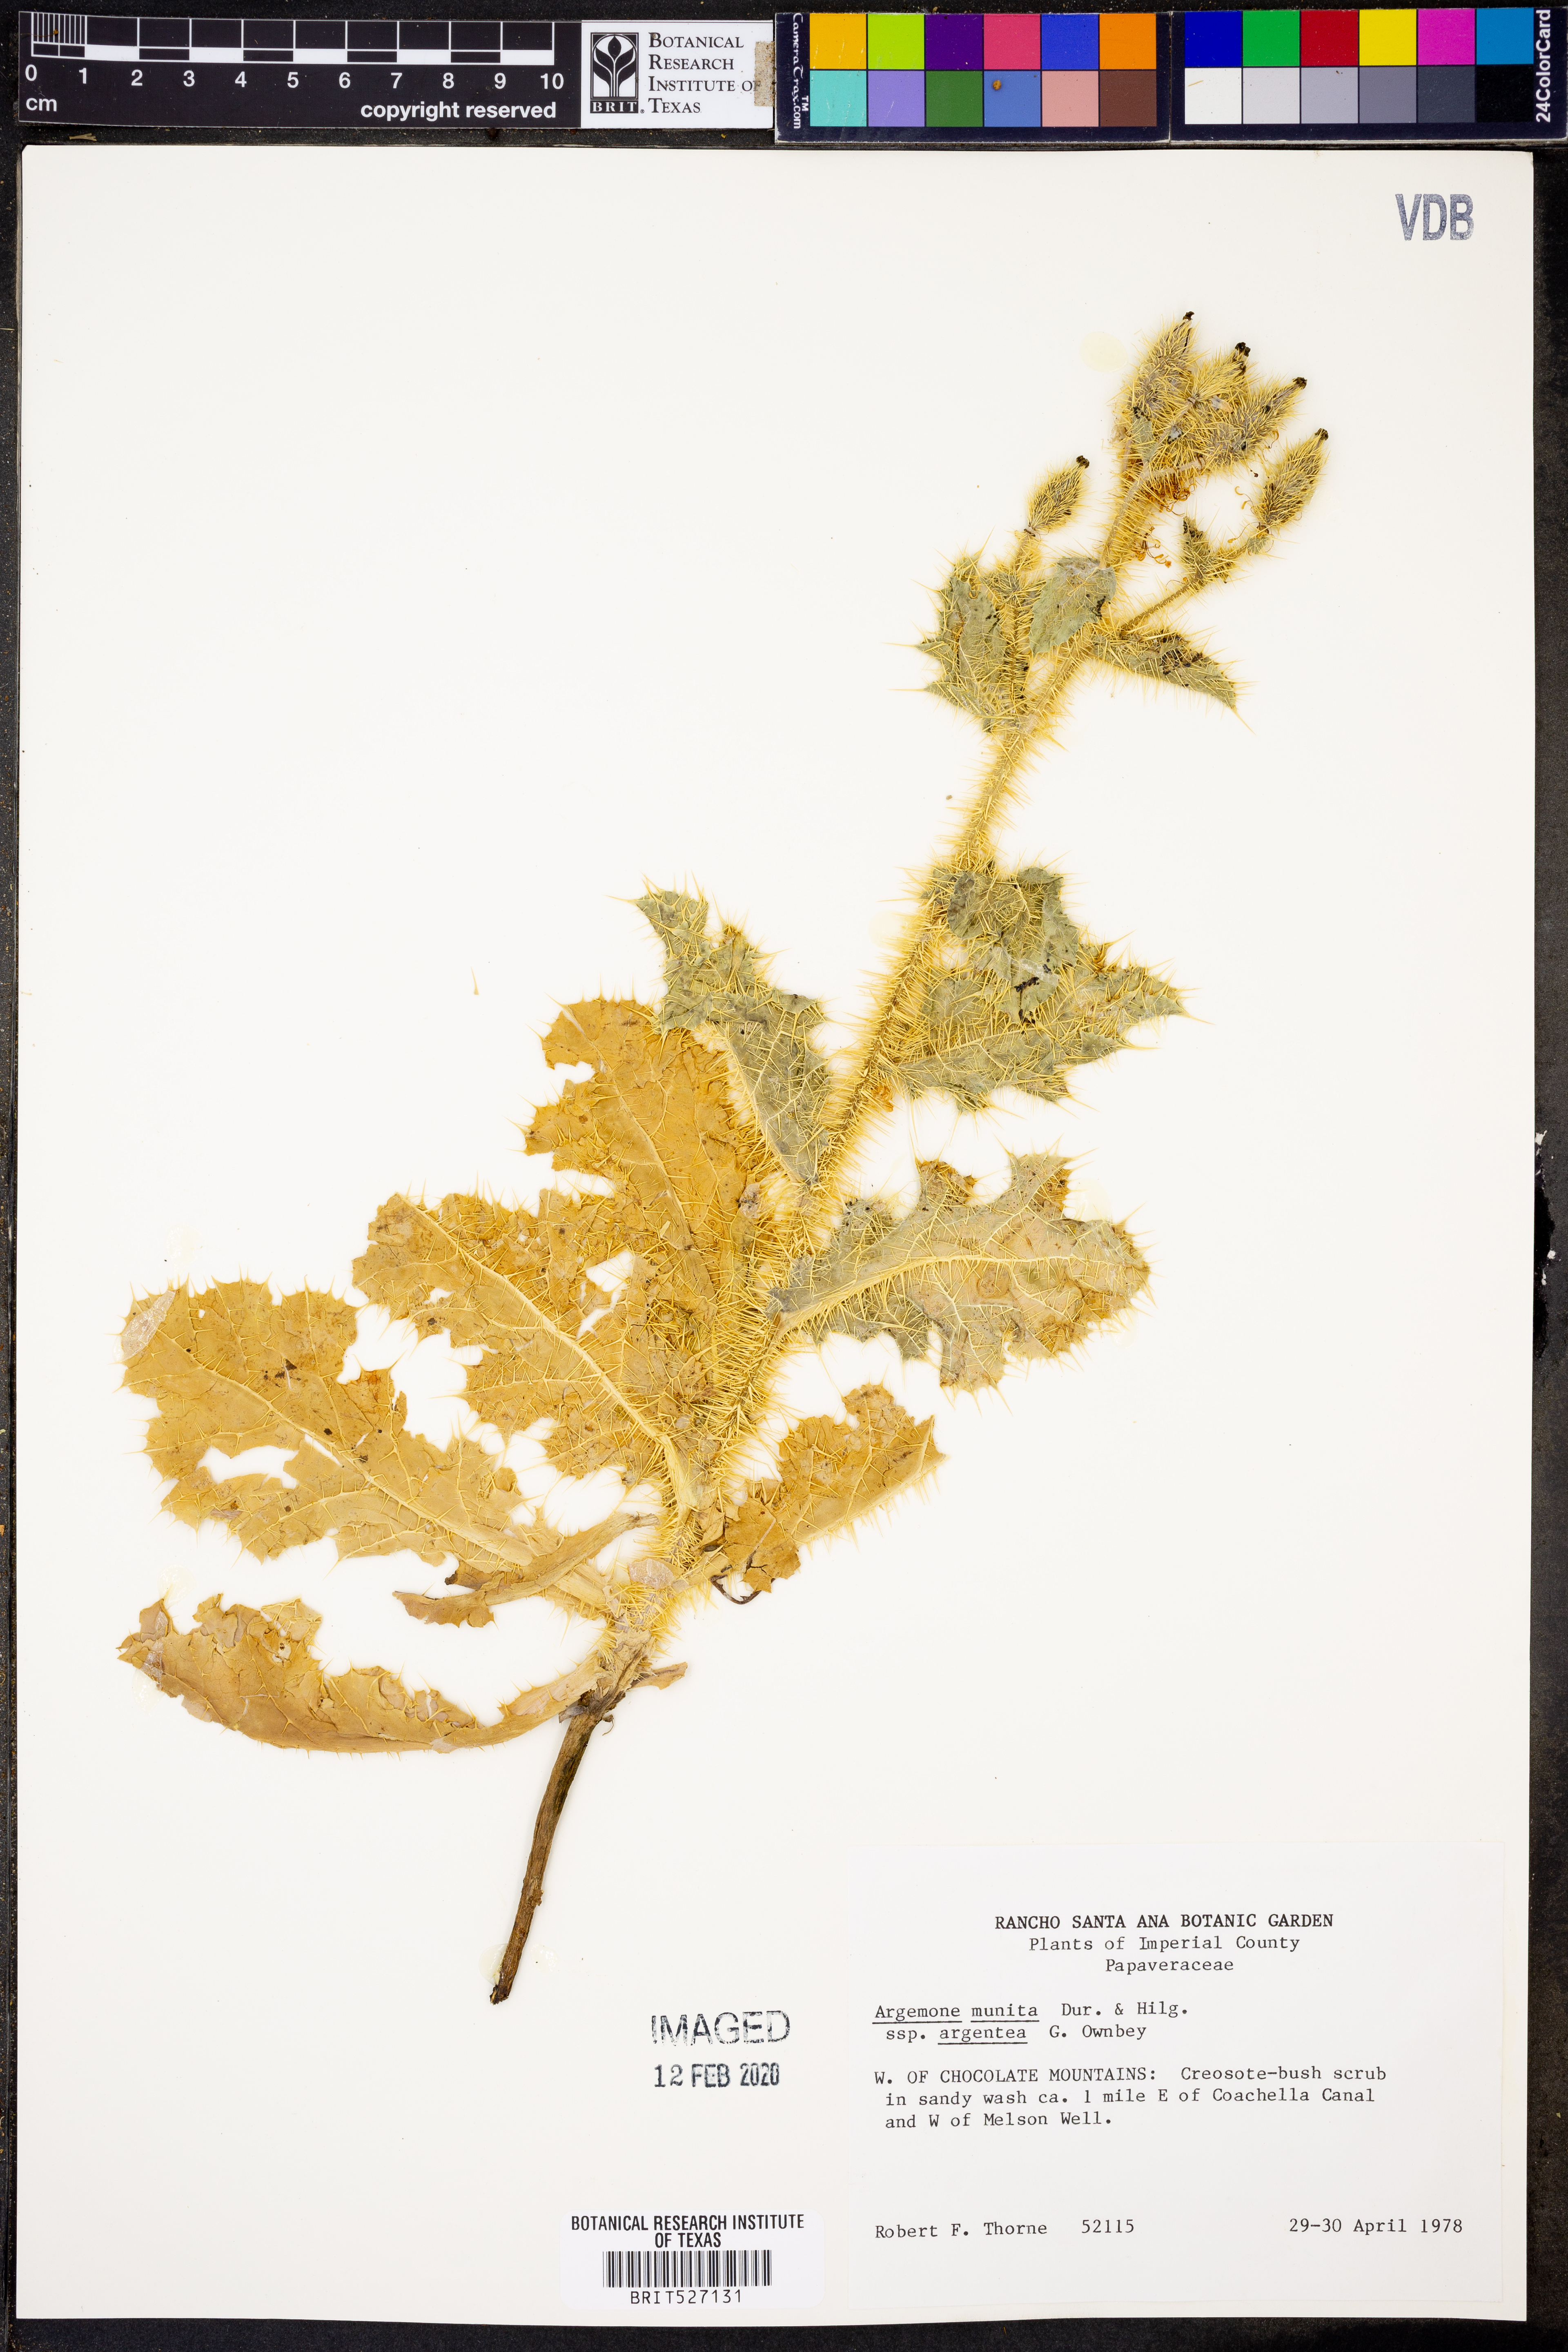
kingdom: Plantae
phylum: Tracheophyta
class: Magnoliopsida
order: Ranunculales
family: Papaveraceae
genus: Argemone
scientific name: Argemone munita
